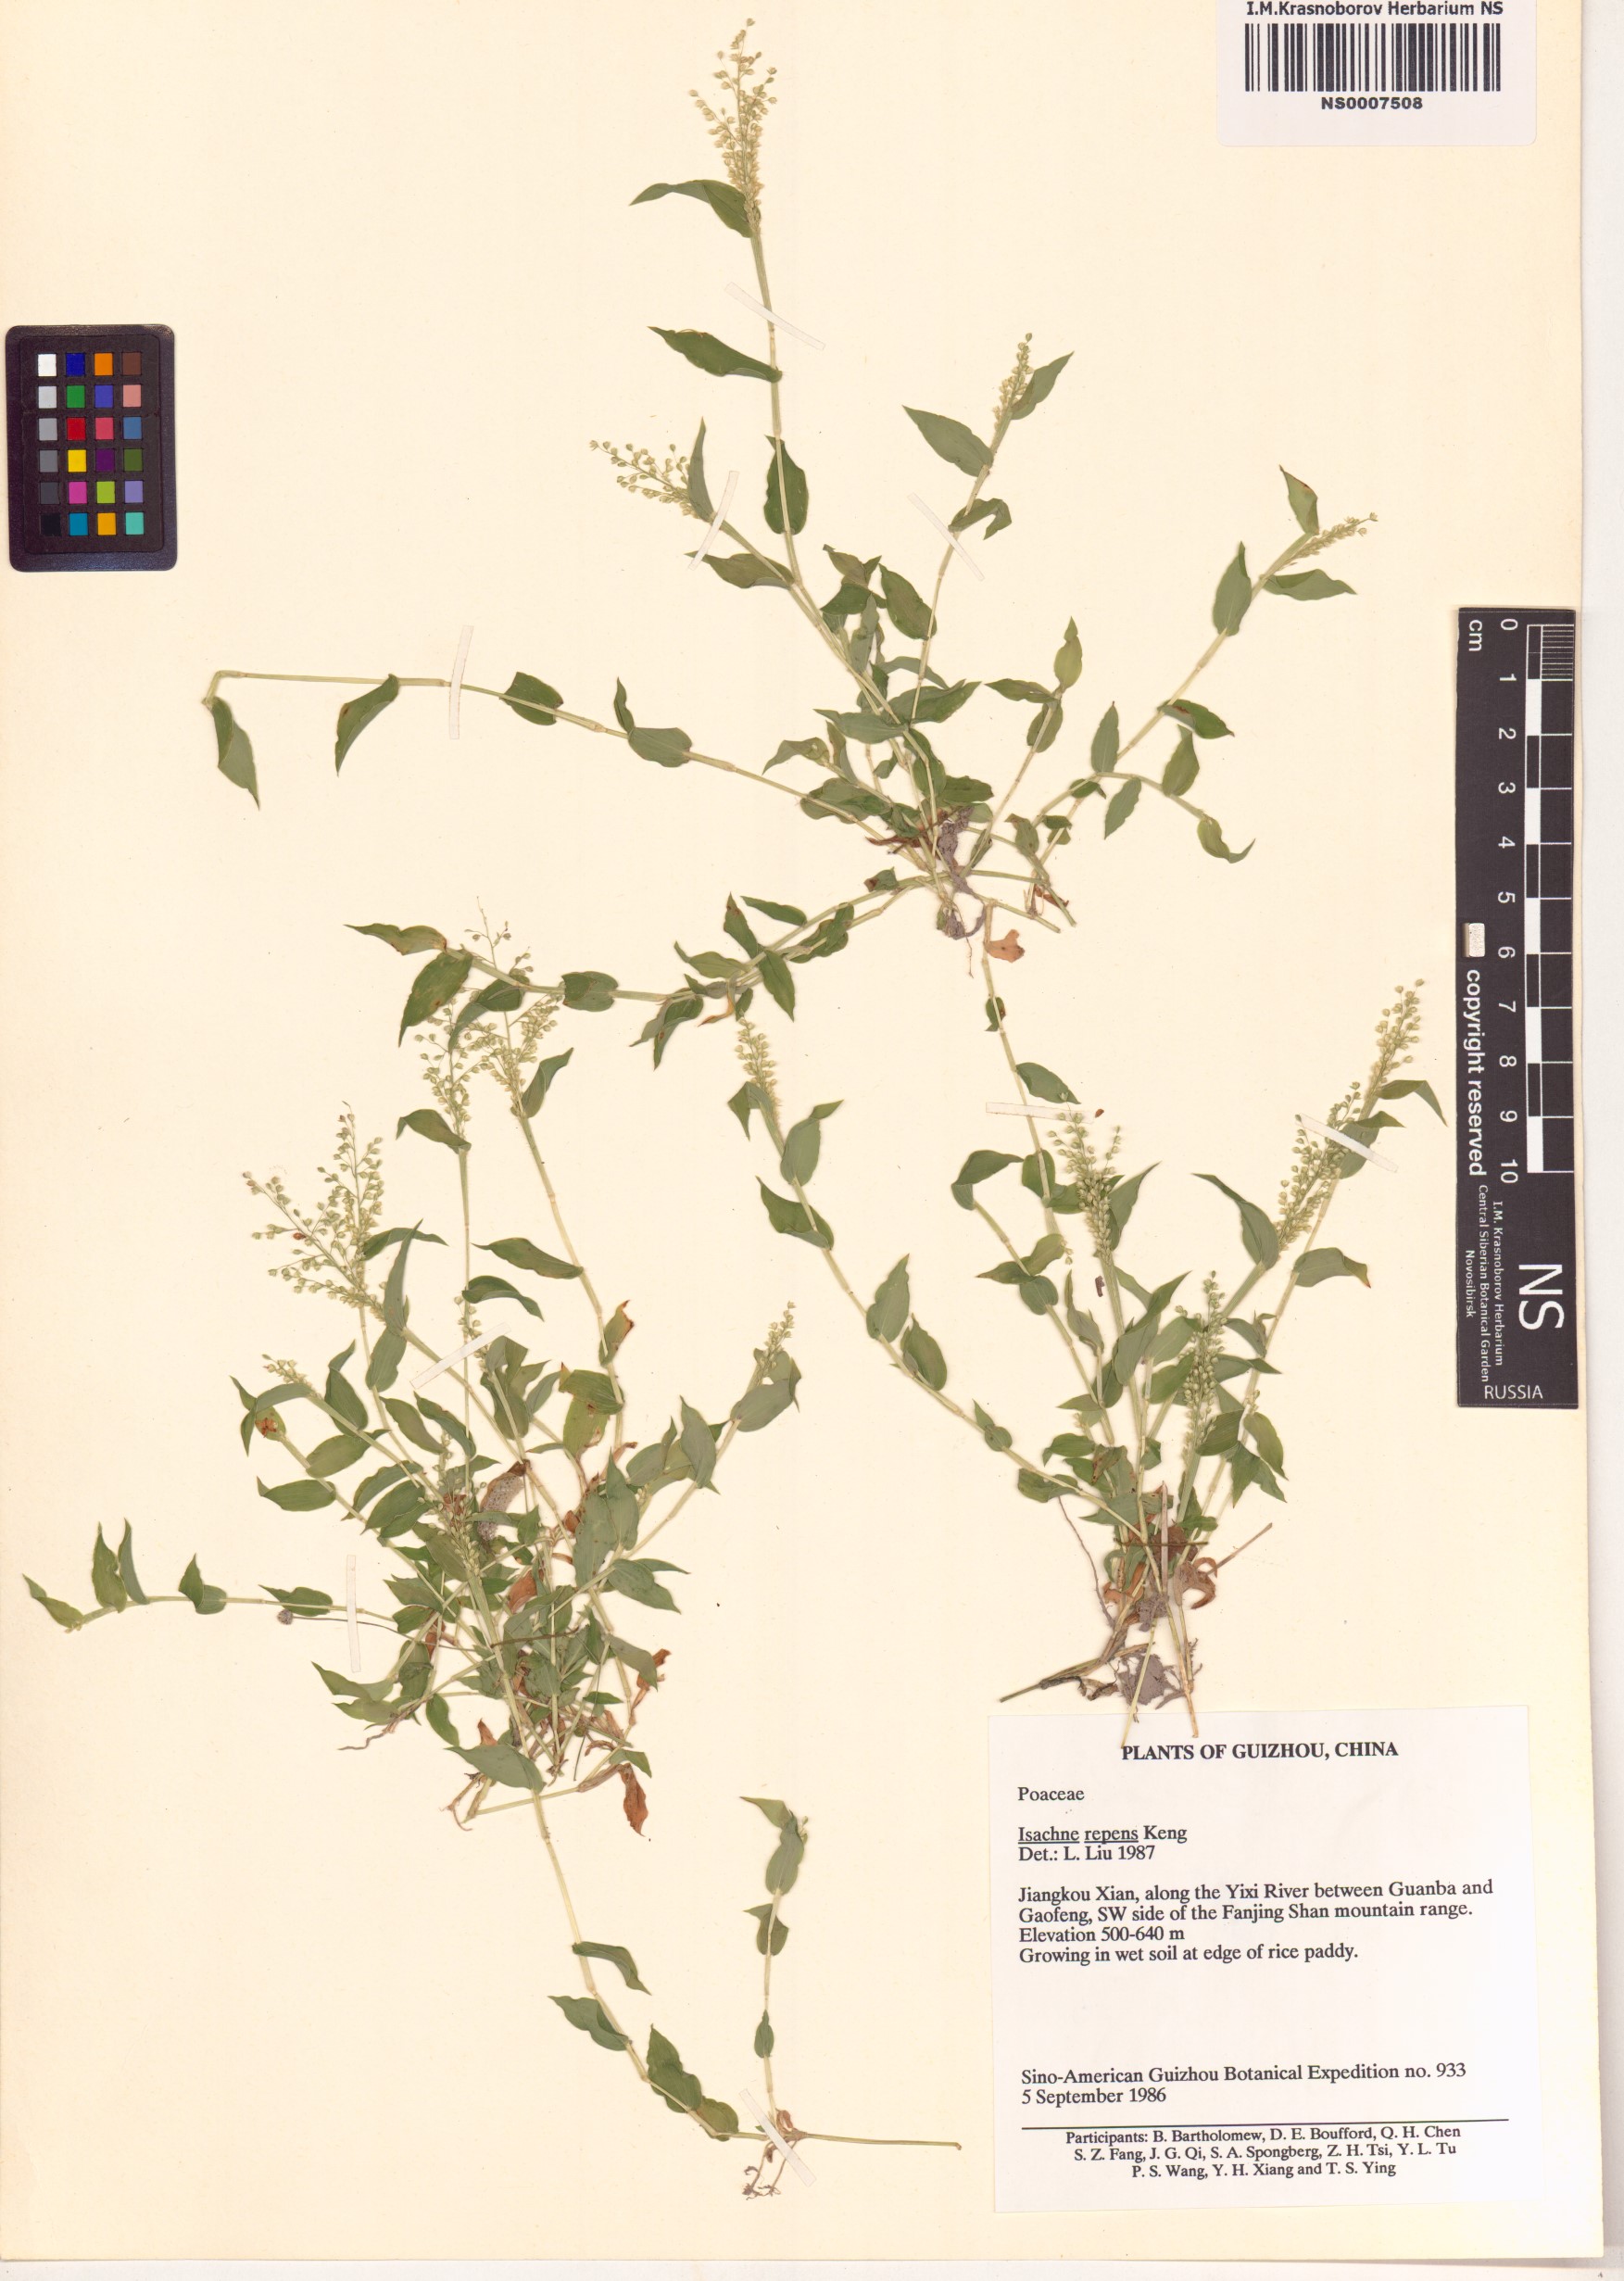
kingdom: Plantae
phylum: Tracheophyta
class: Liliopsida
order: Poales
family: Poaceae
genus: Isachne
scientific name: Isachne commelinifolia
